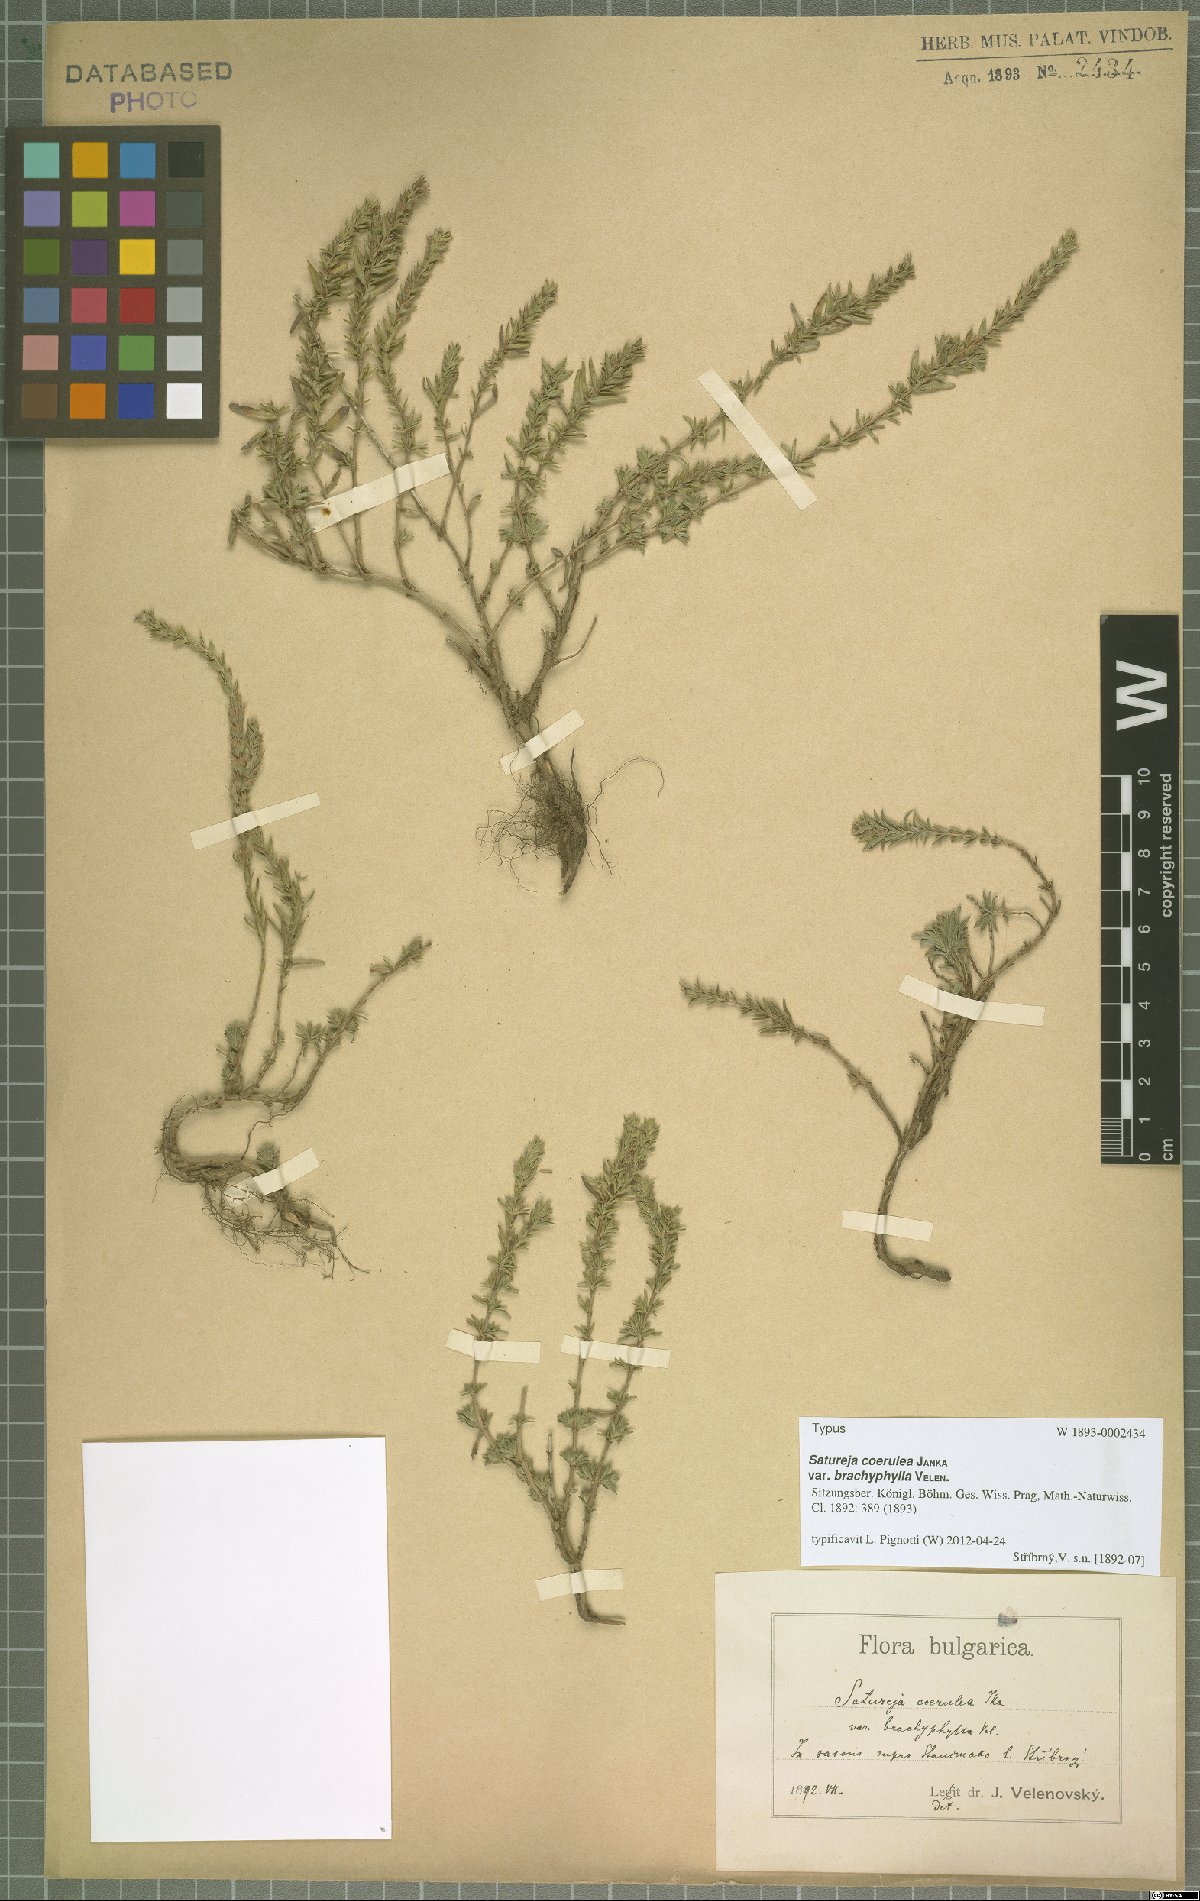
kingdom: Plantae
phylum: Tracheophyta
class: Magnoliopsida
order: Lamiales
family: Lamiaceae
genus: Satureja
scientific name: Satureja coerulea
